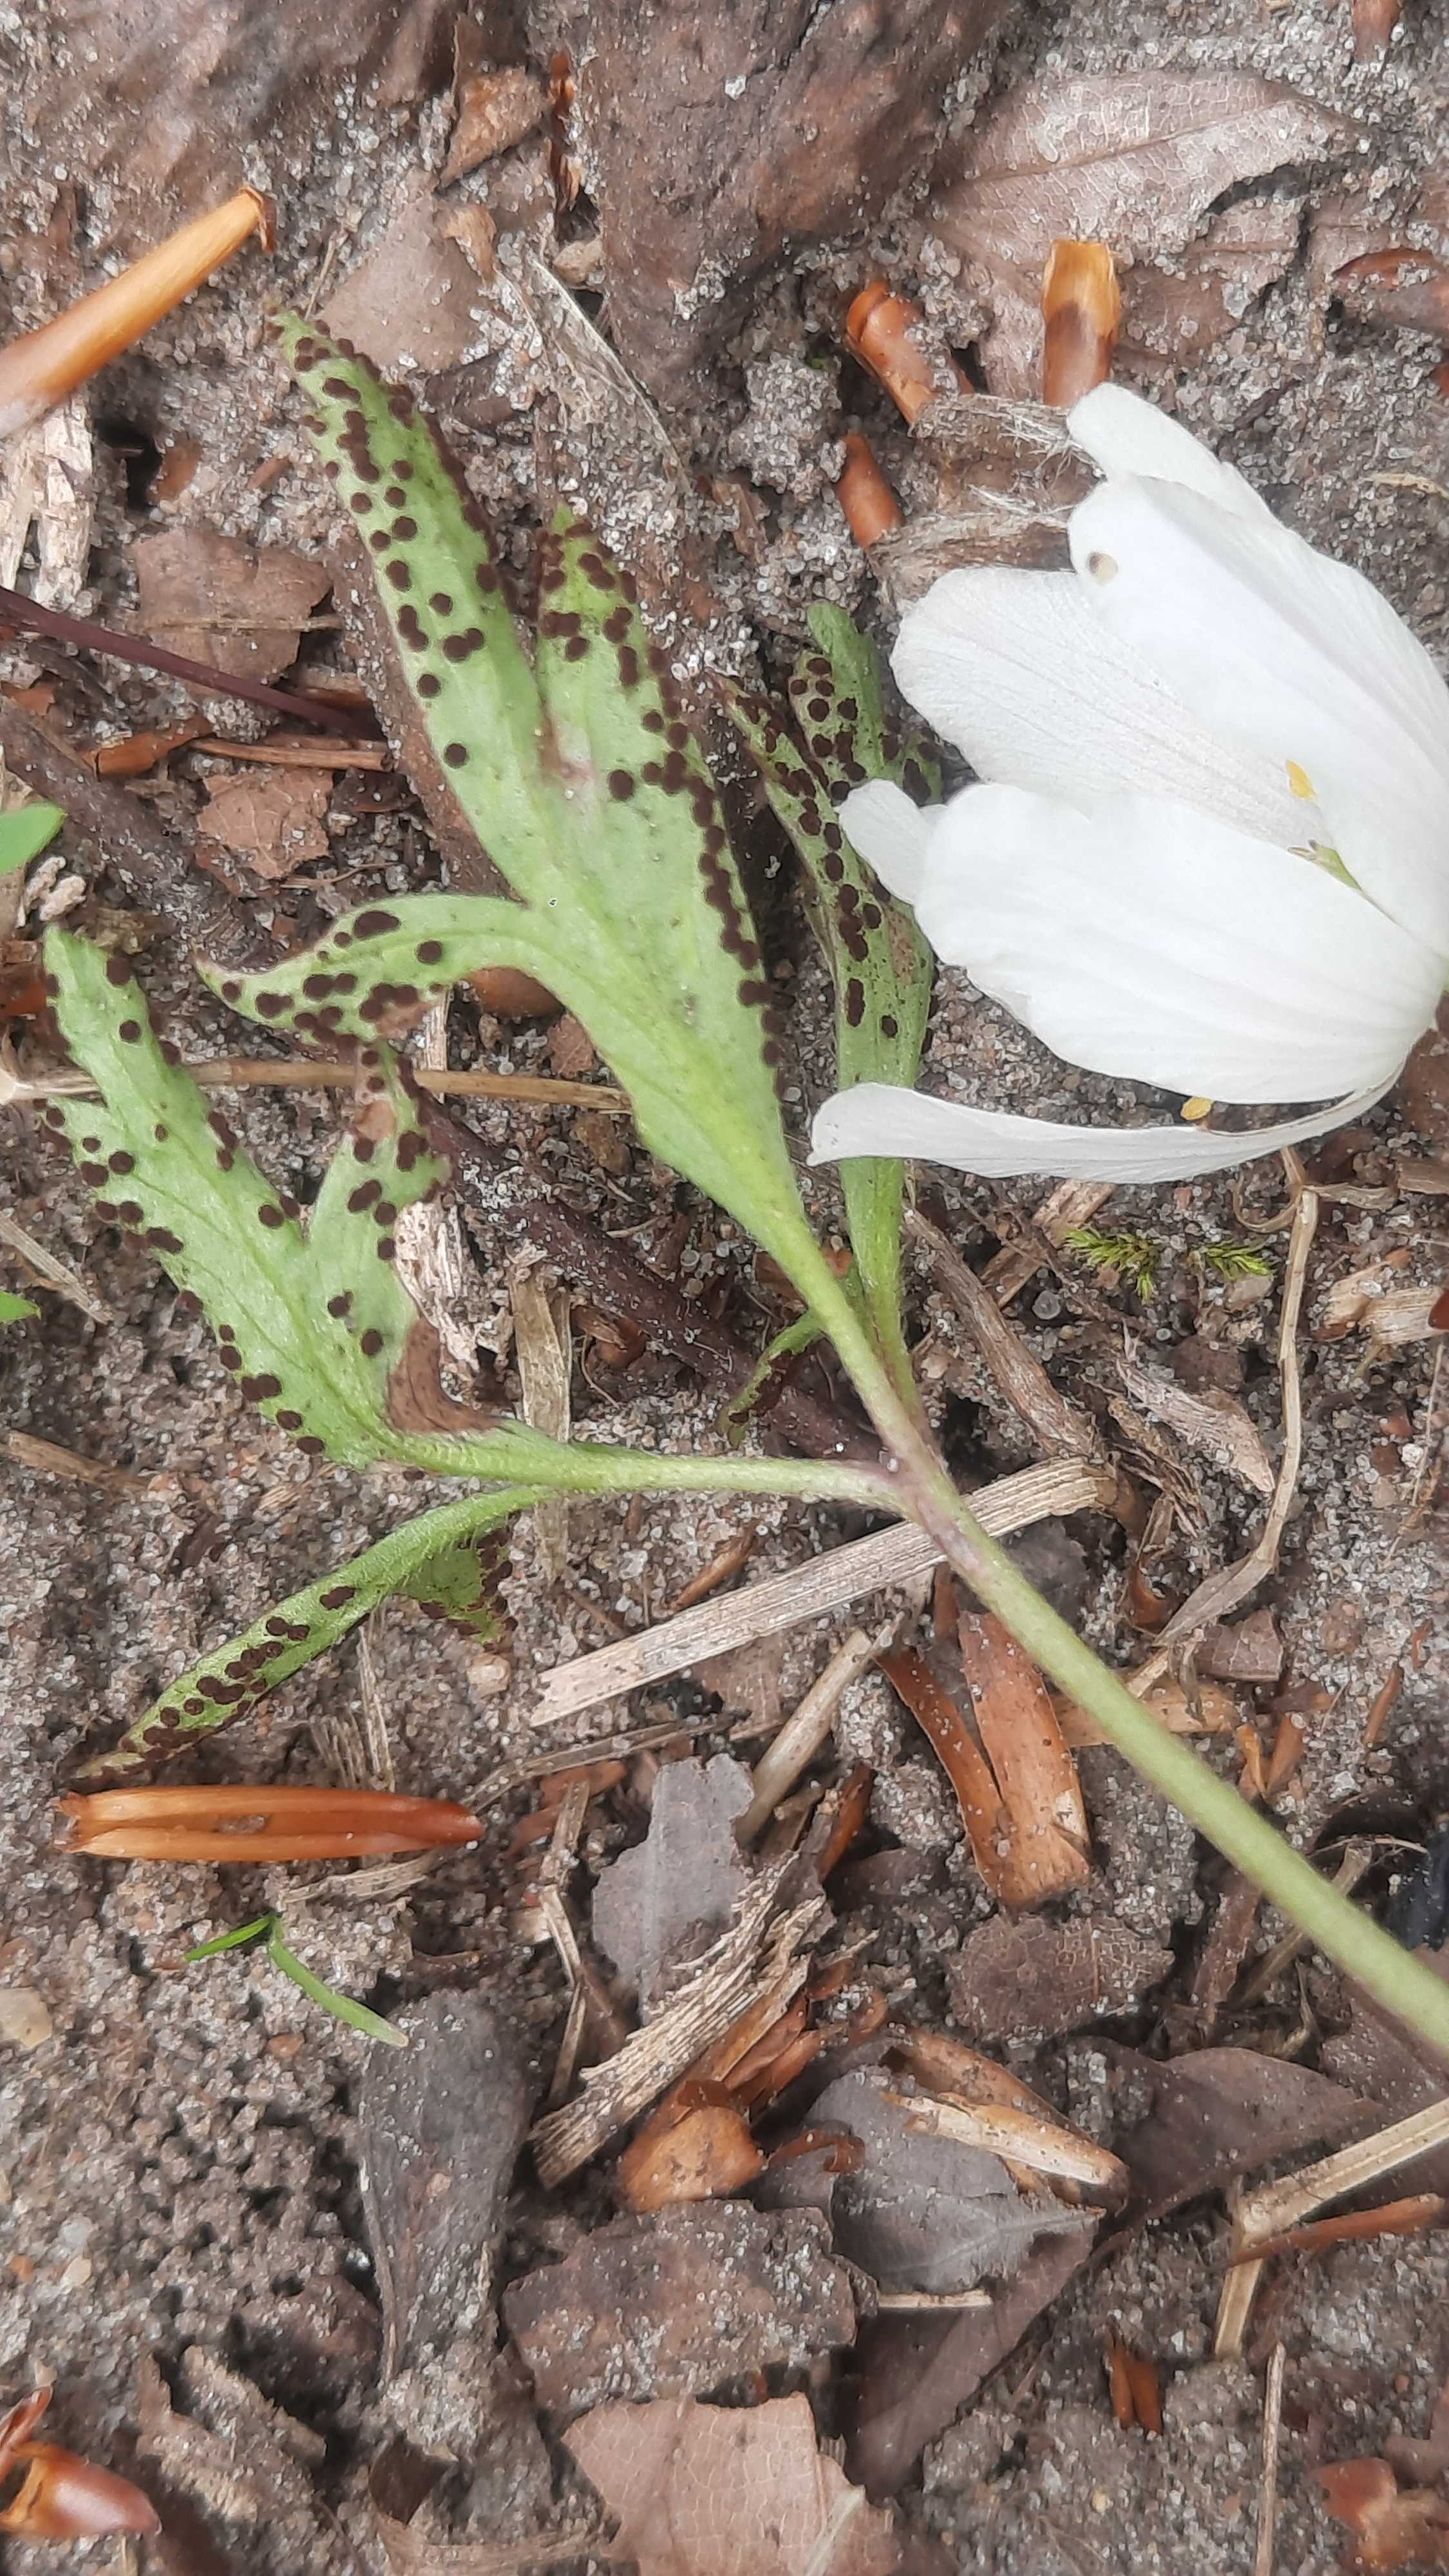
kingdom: Fungi
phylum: Basidiomycota
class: Pucciniomycetes
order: Pucciniales
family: Tranzscheliaceae
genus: Tranzschelia
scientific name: Tranzschelia anemones
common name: anemone-knæksporerust
